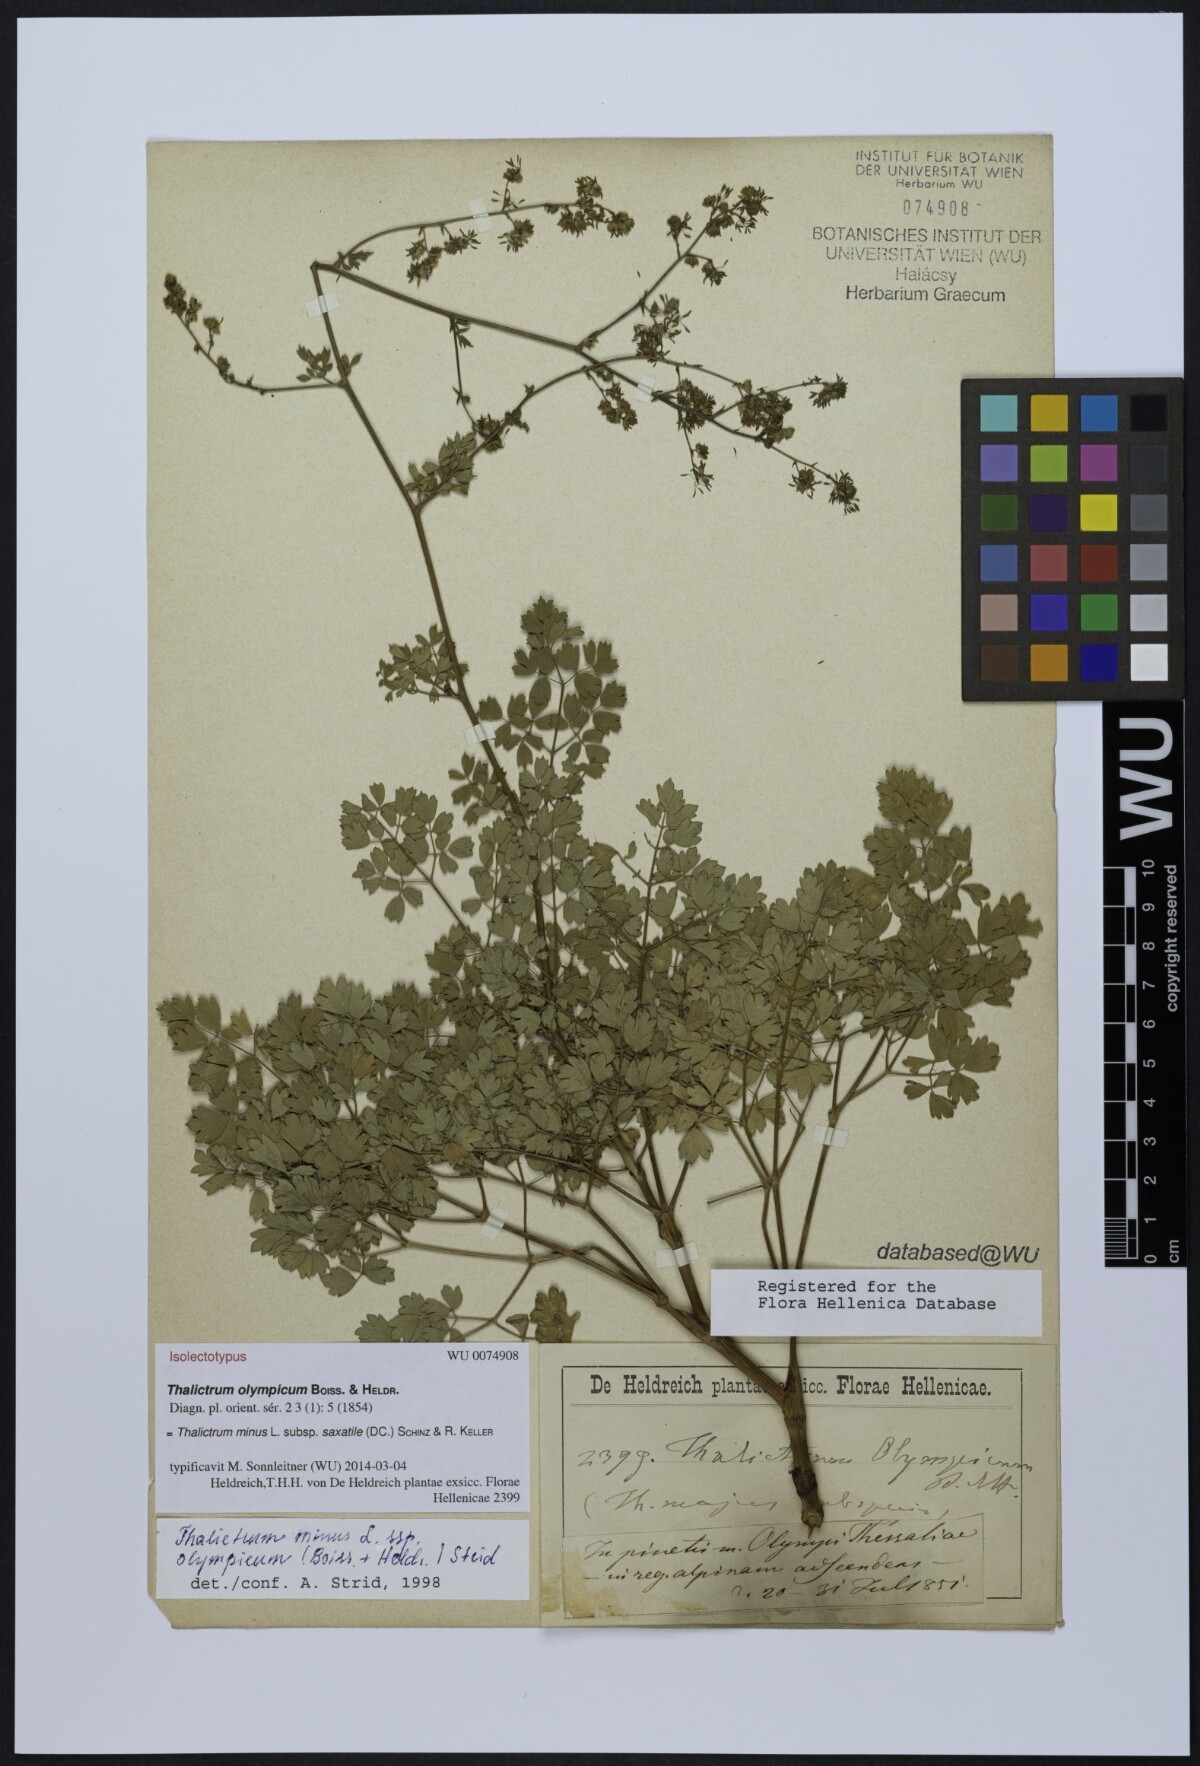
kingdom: Plantae
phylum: Tracheophyta
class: Magnoliopsida
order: Ranunculales
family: Ranunculaceae
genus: Thalictrum
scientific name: Thalictrum minus
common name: Lesser meadow-rue
